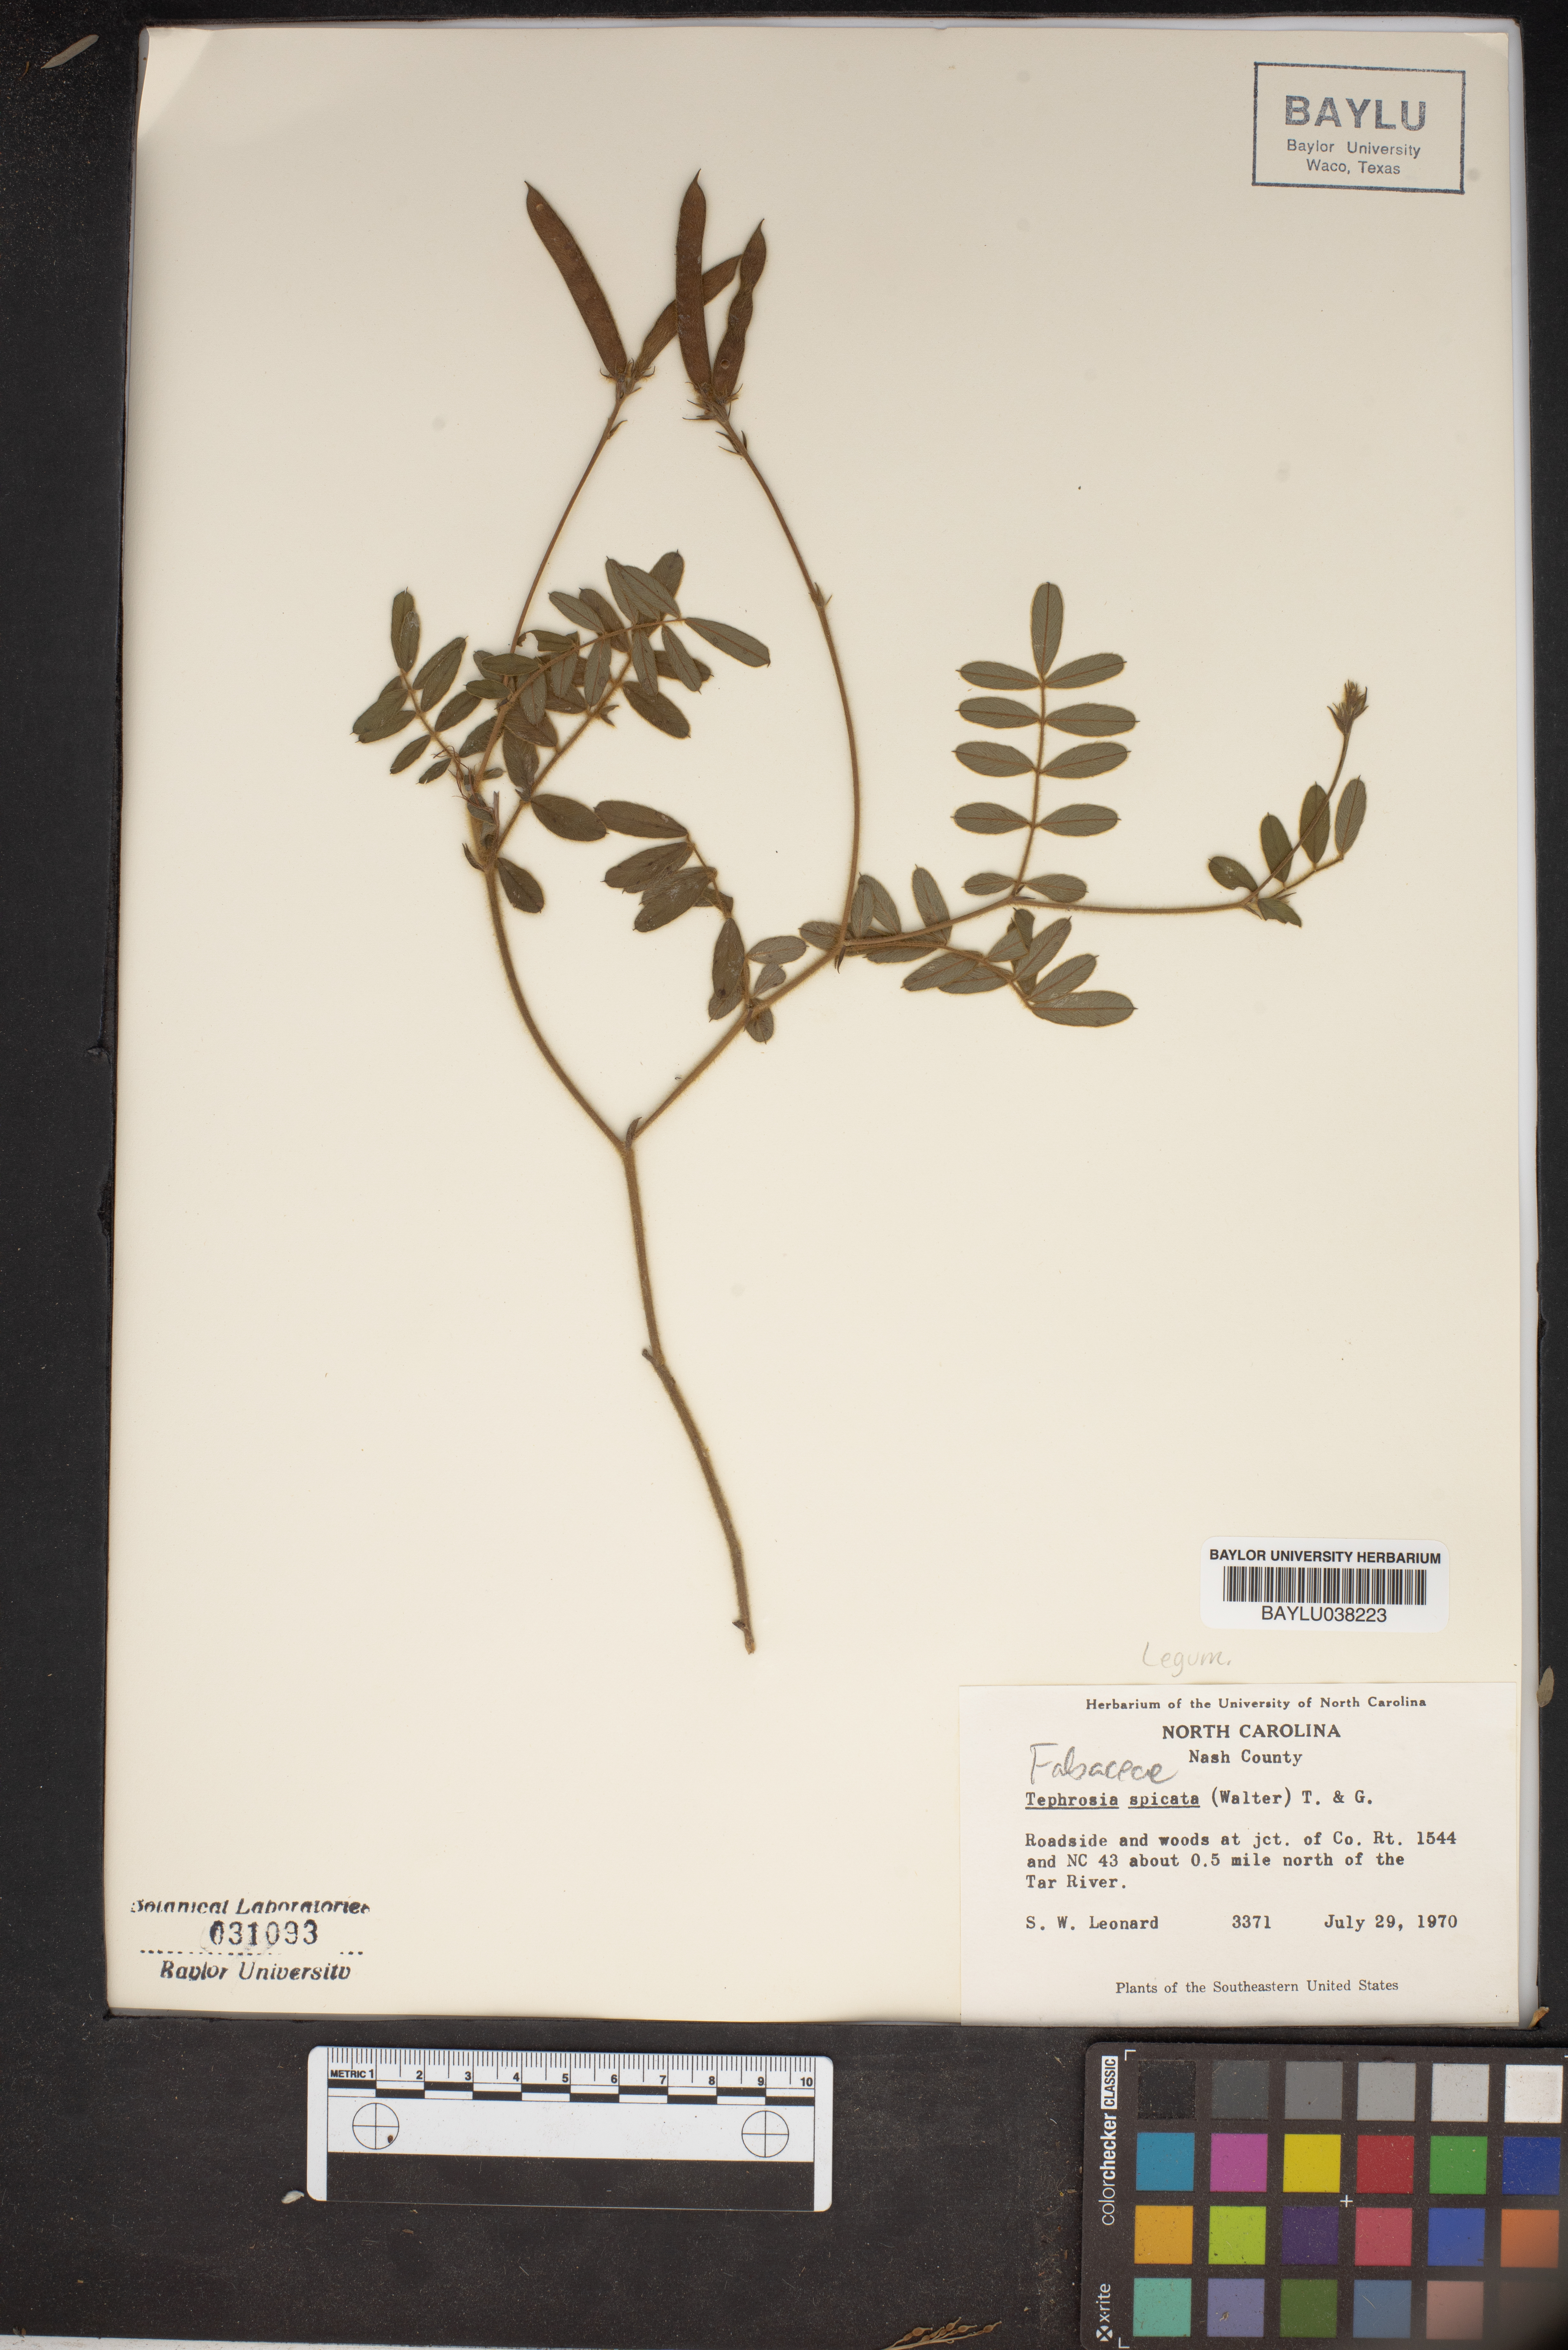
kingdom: Plantae
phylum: Tracheophyta
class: Magnoliopsida
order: Fabales
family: Fabaceae
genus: Tephrosia
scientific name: Tephrosia spicata
